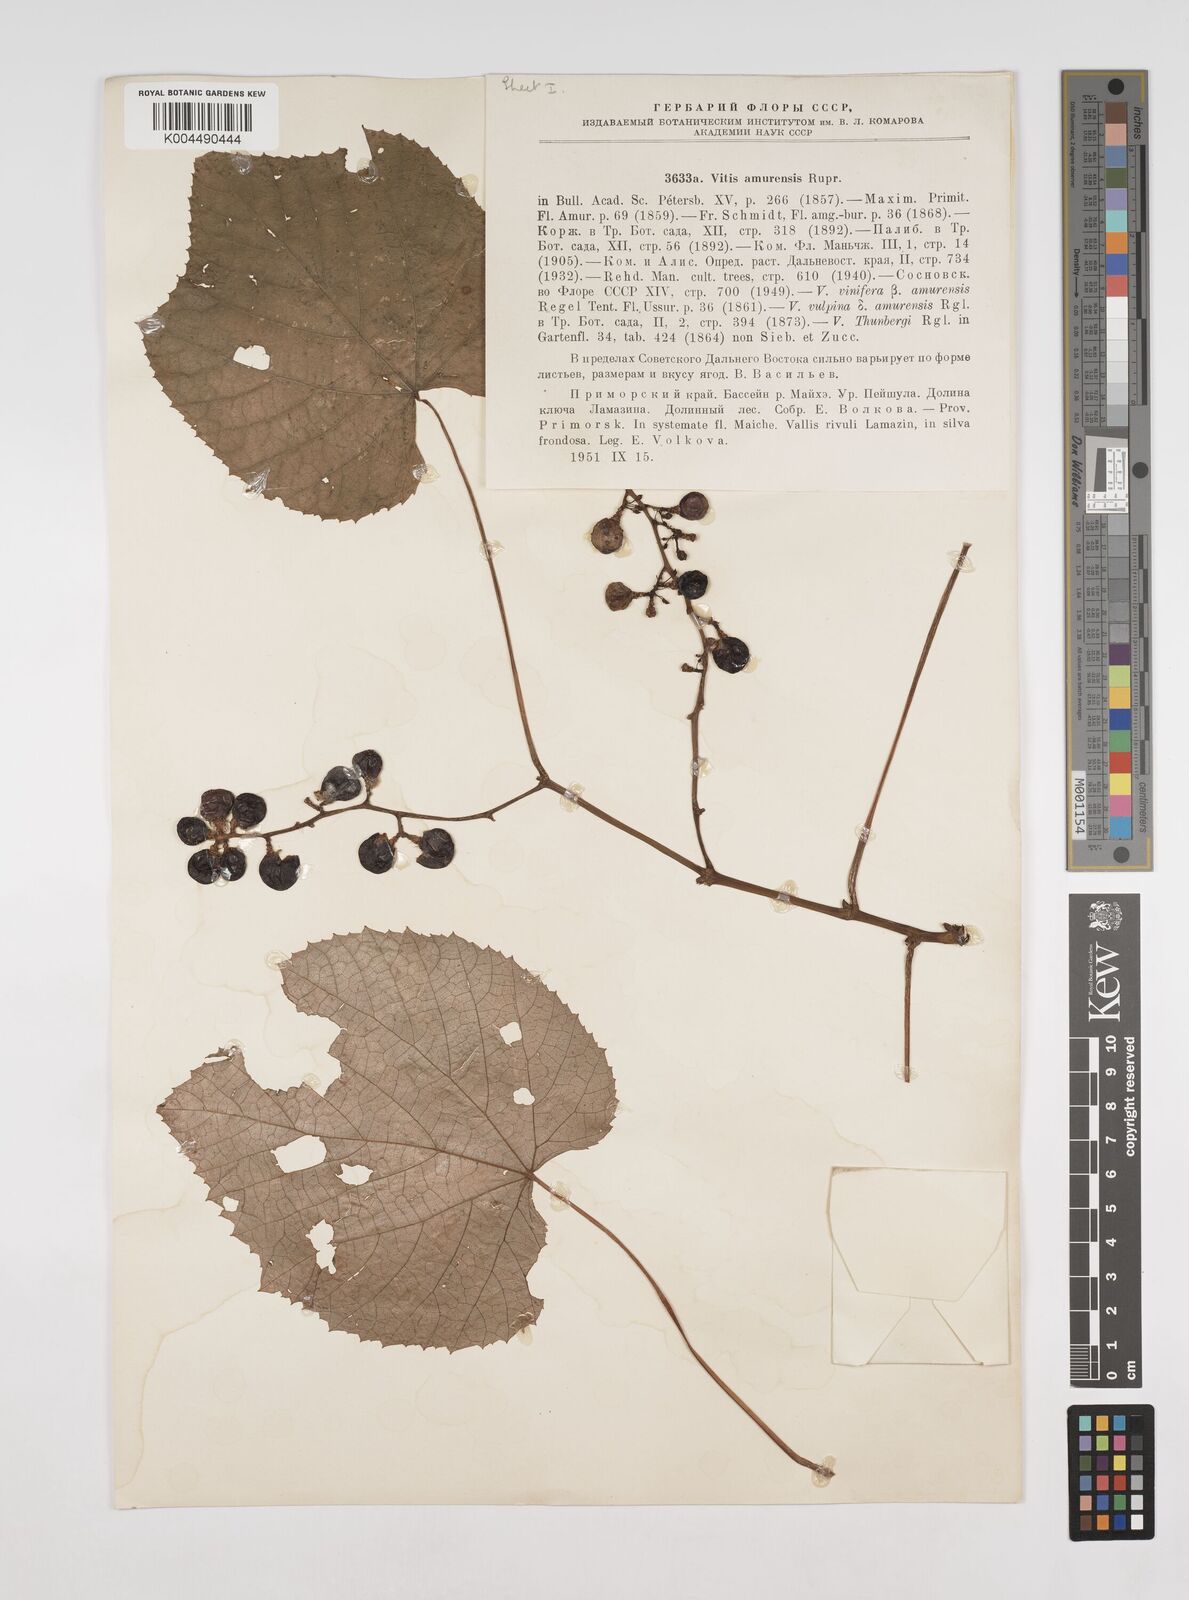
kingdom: Plantae
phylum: Tracheophyta
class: Magnoliopsida
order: Vitales
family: Vitaceae
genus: Vitis
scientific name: Vitis vinifera
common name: Grape-vine
